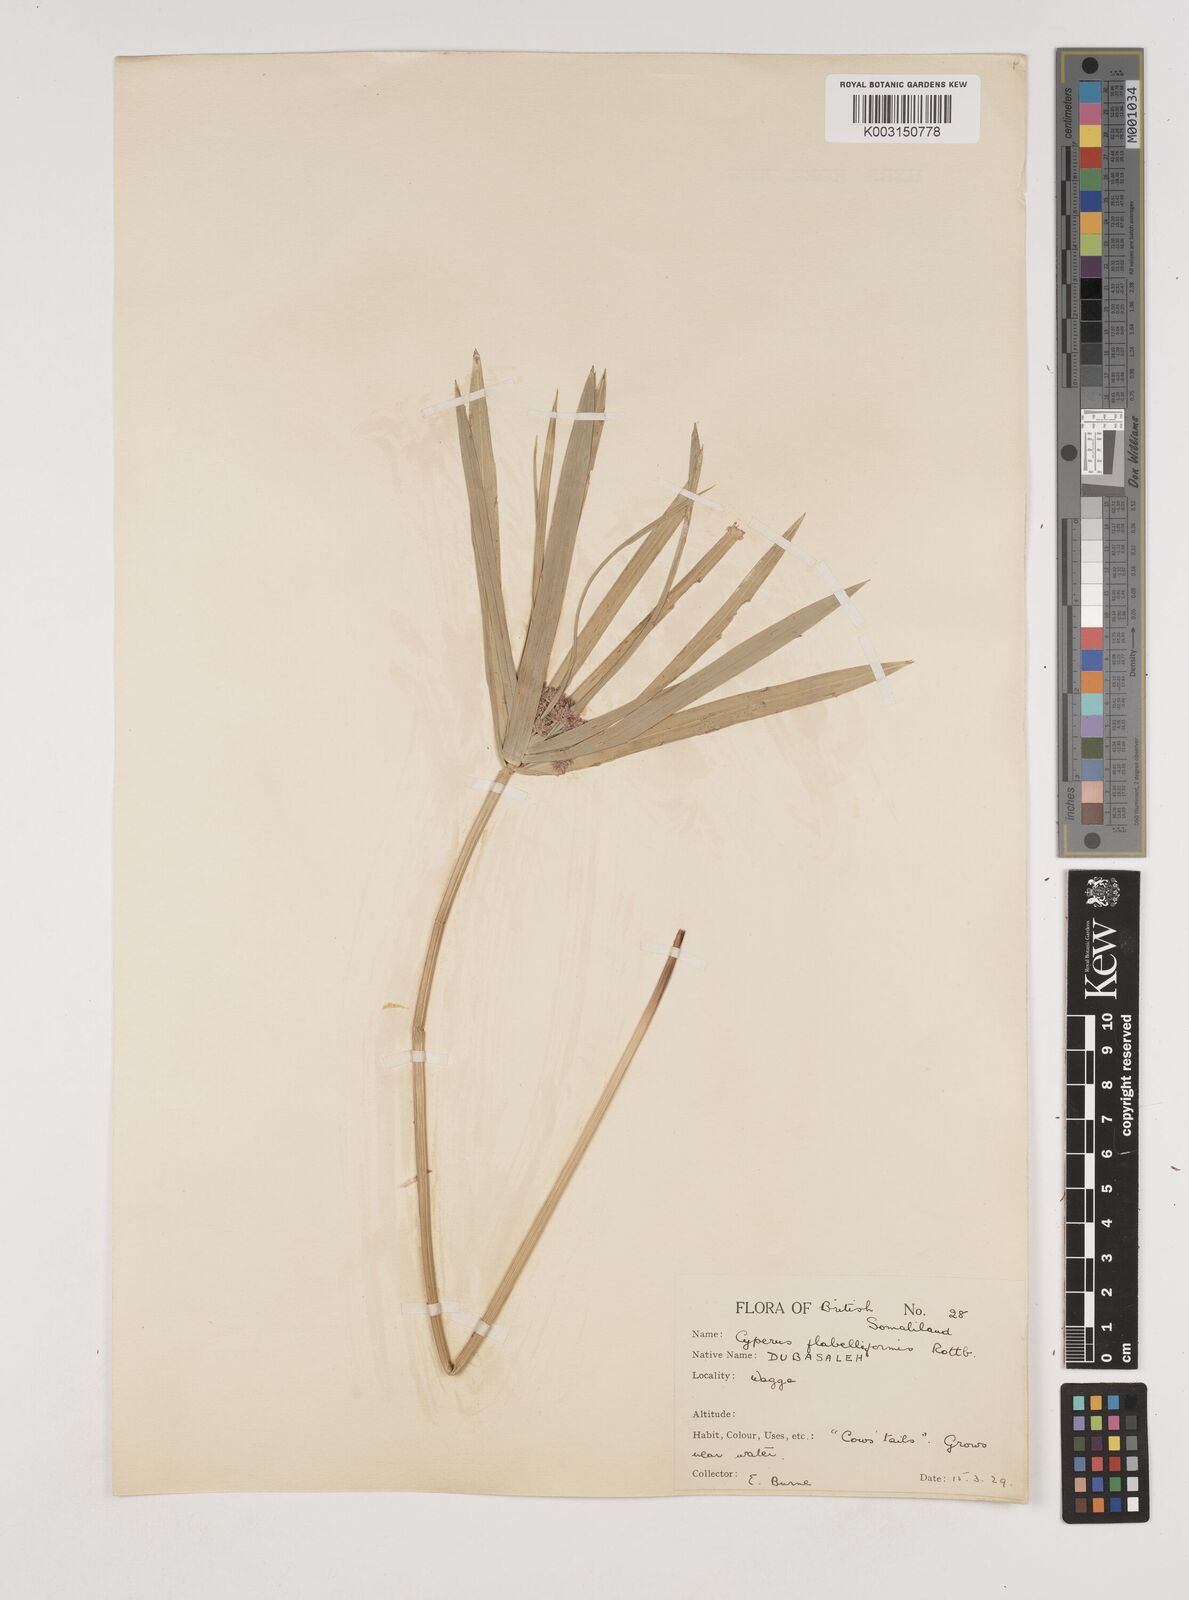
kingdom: Plantae
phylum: Tracheophyta
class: Liliopsida
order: Poales
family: Cyperaceae
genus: Cyperus
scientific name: Cyperus alternifolius
